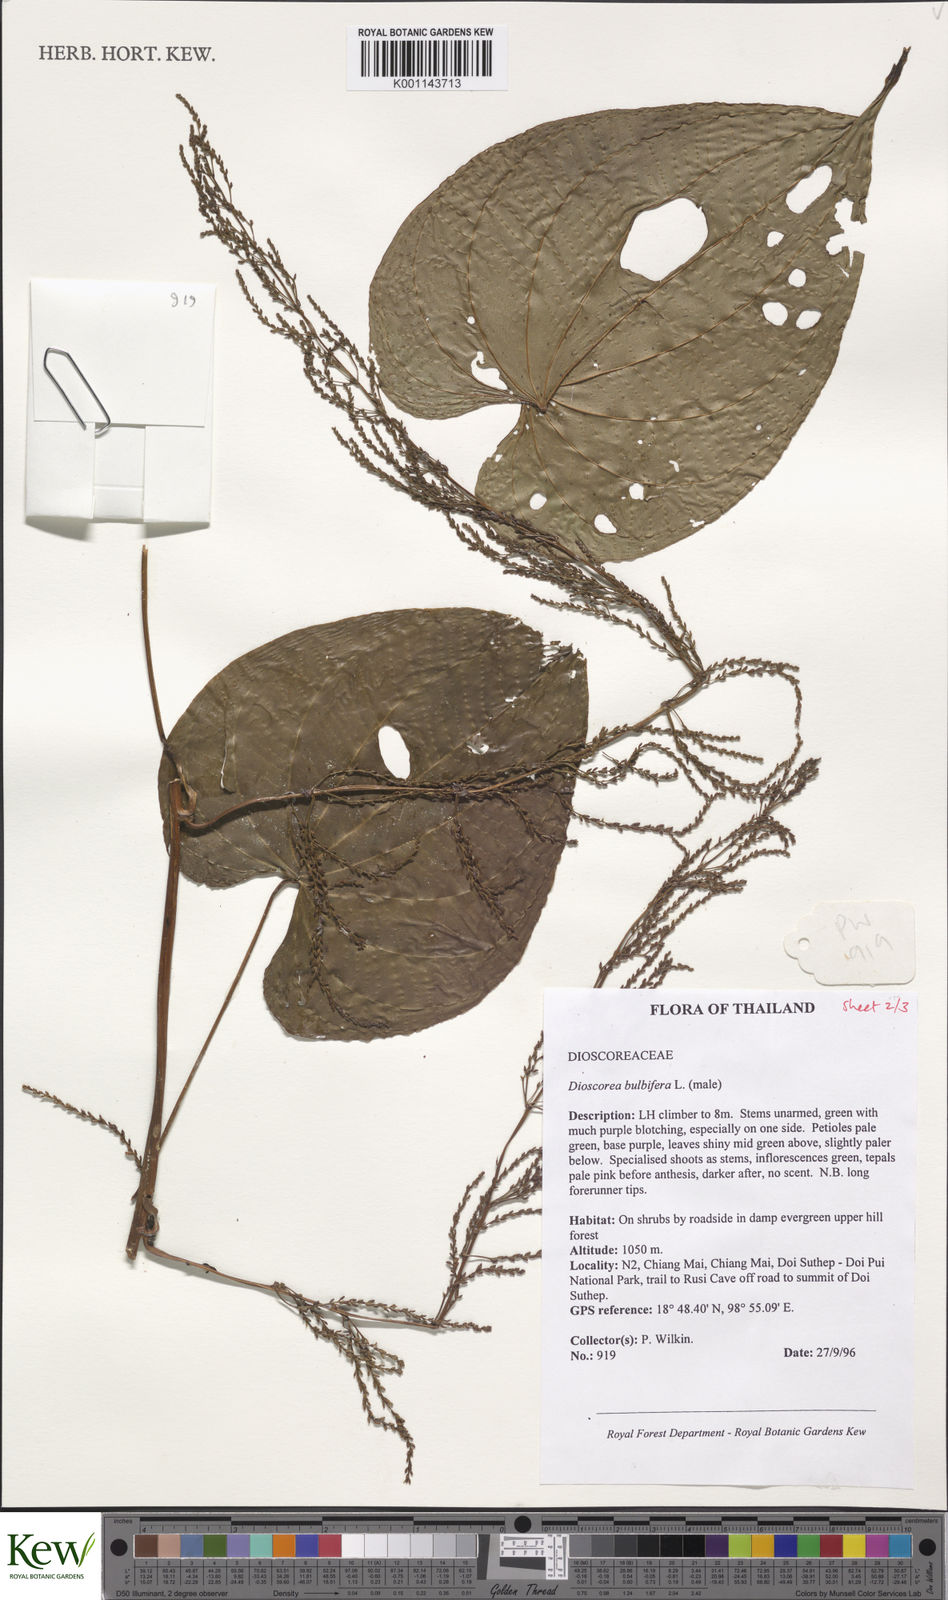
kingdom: Plantae
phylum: Tracheophyta
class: Liliopsida
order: Dioscoreales
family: Dioscoreaceae
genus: Dioscorea
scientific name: Dioscorea bulbifera
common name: Air yam
